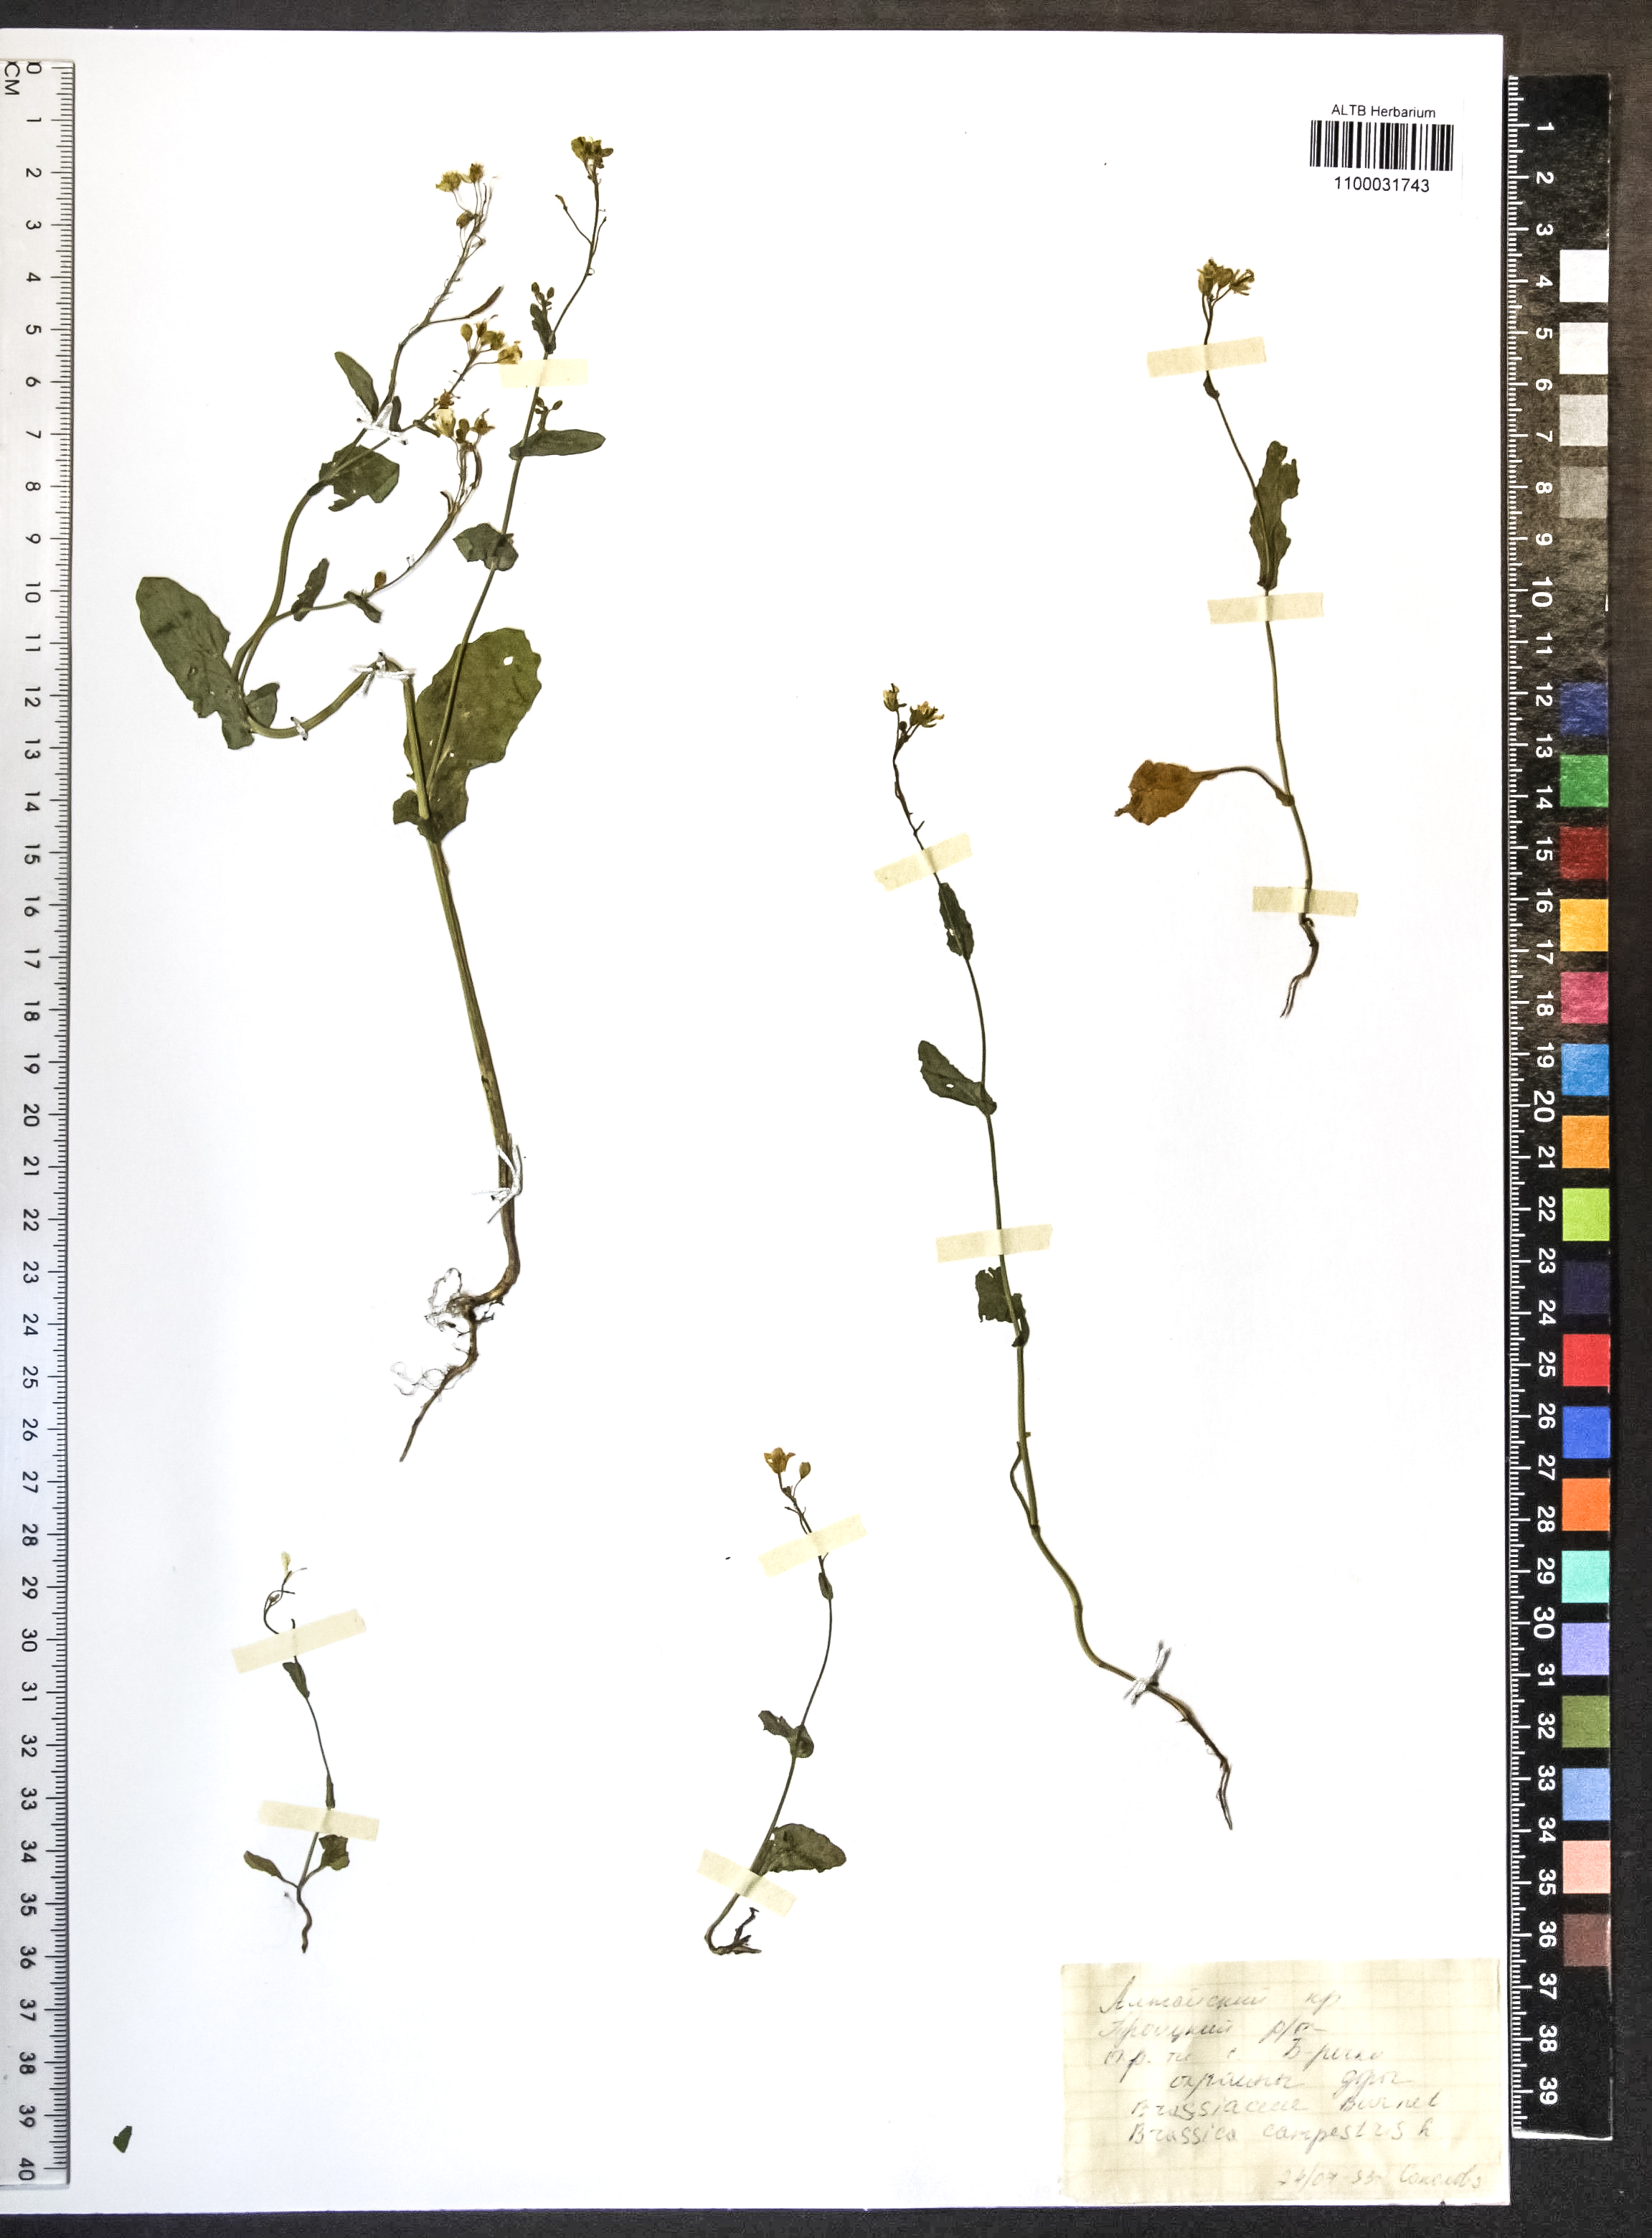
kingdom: Plantae
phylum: Tracheophyta
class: Magnoliopsida
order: Brassicales
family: Brassicaceae
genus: Brassica
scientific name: Brassica rapa
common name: Field mustard
